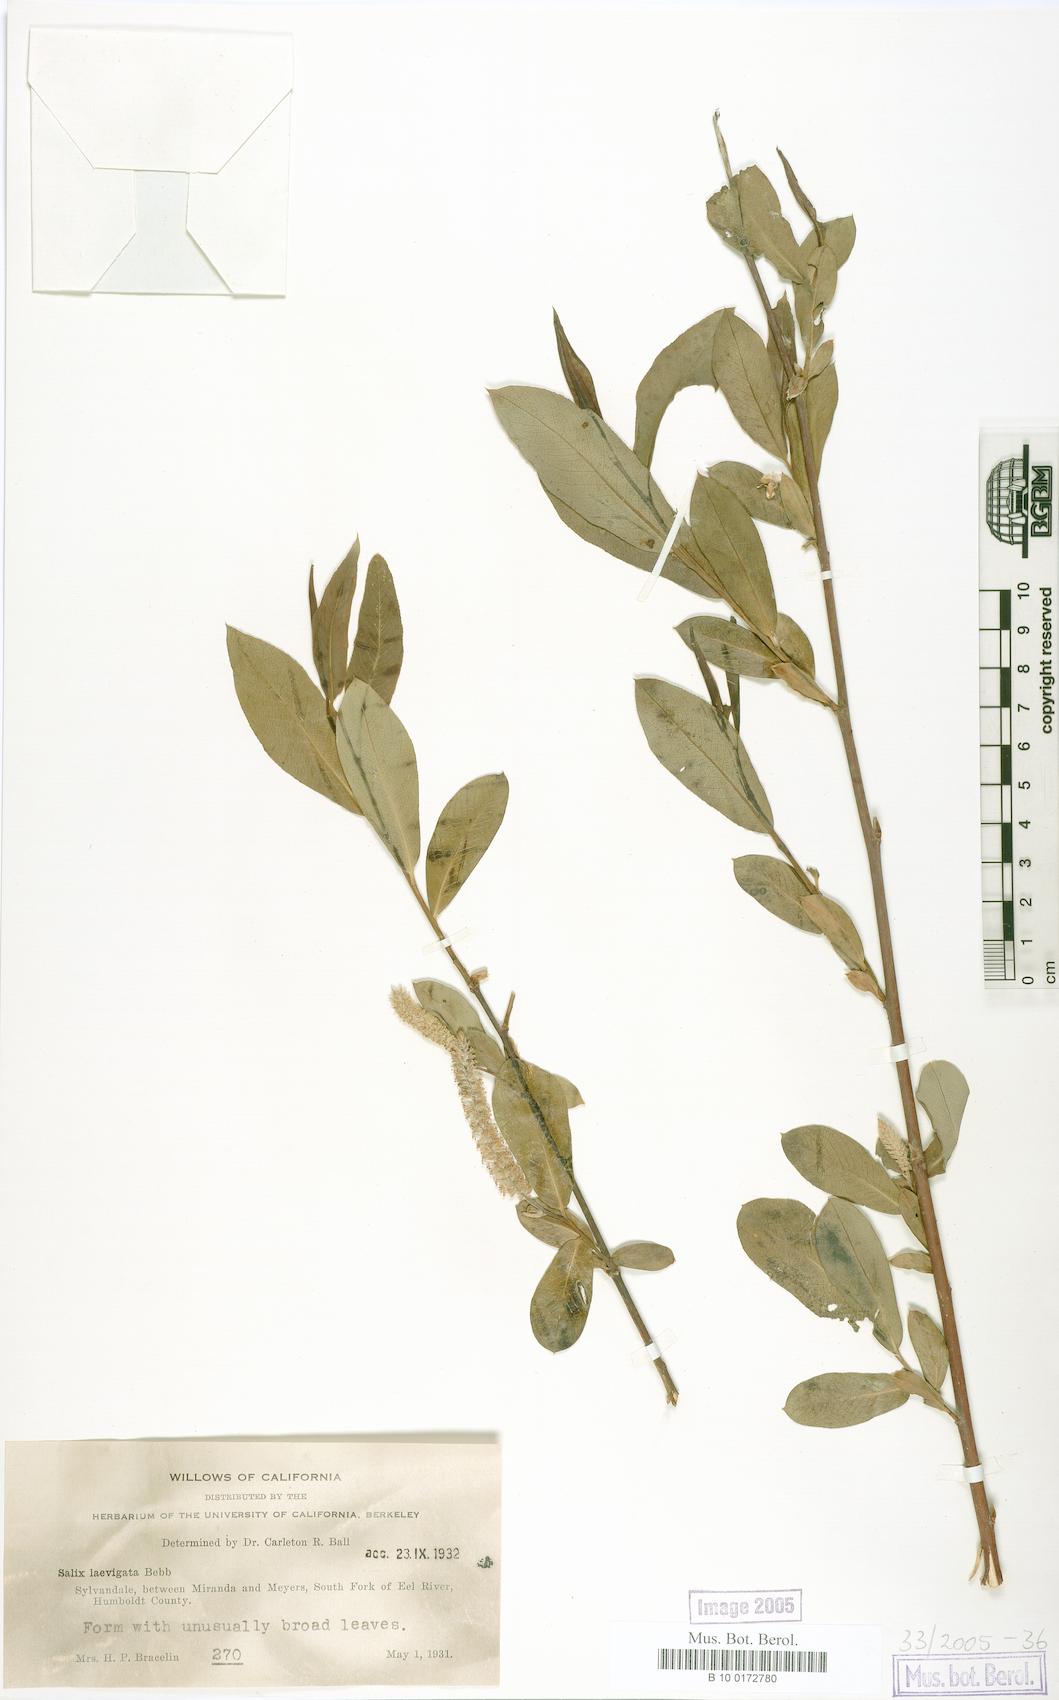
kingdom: Plantae
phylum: Tracheophyta
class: Magnoliopsida
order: Malpighiales
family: Salicaceae
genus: Salix
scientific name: Salix laevigata
